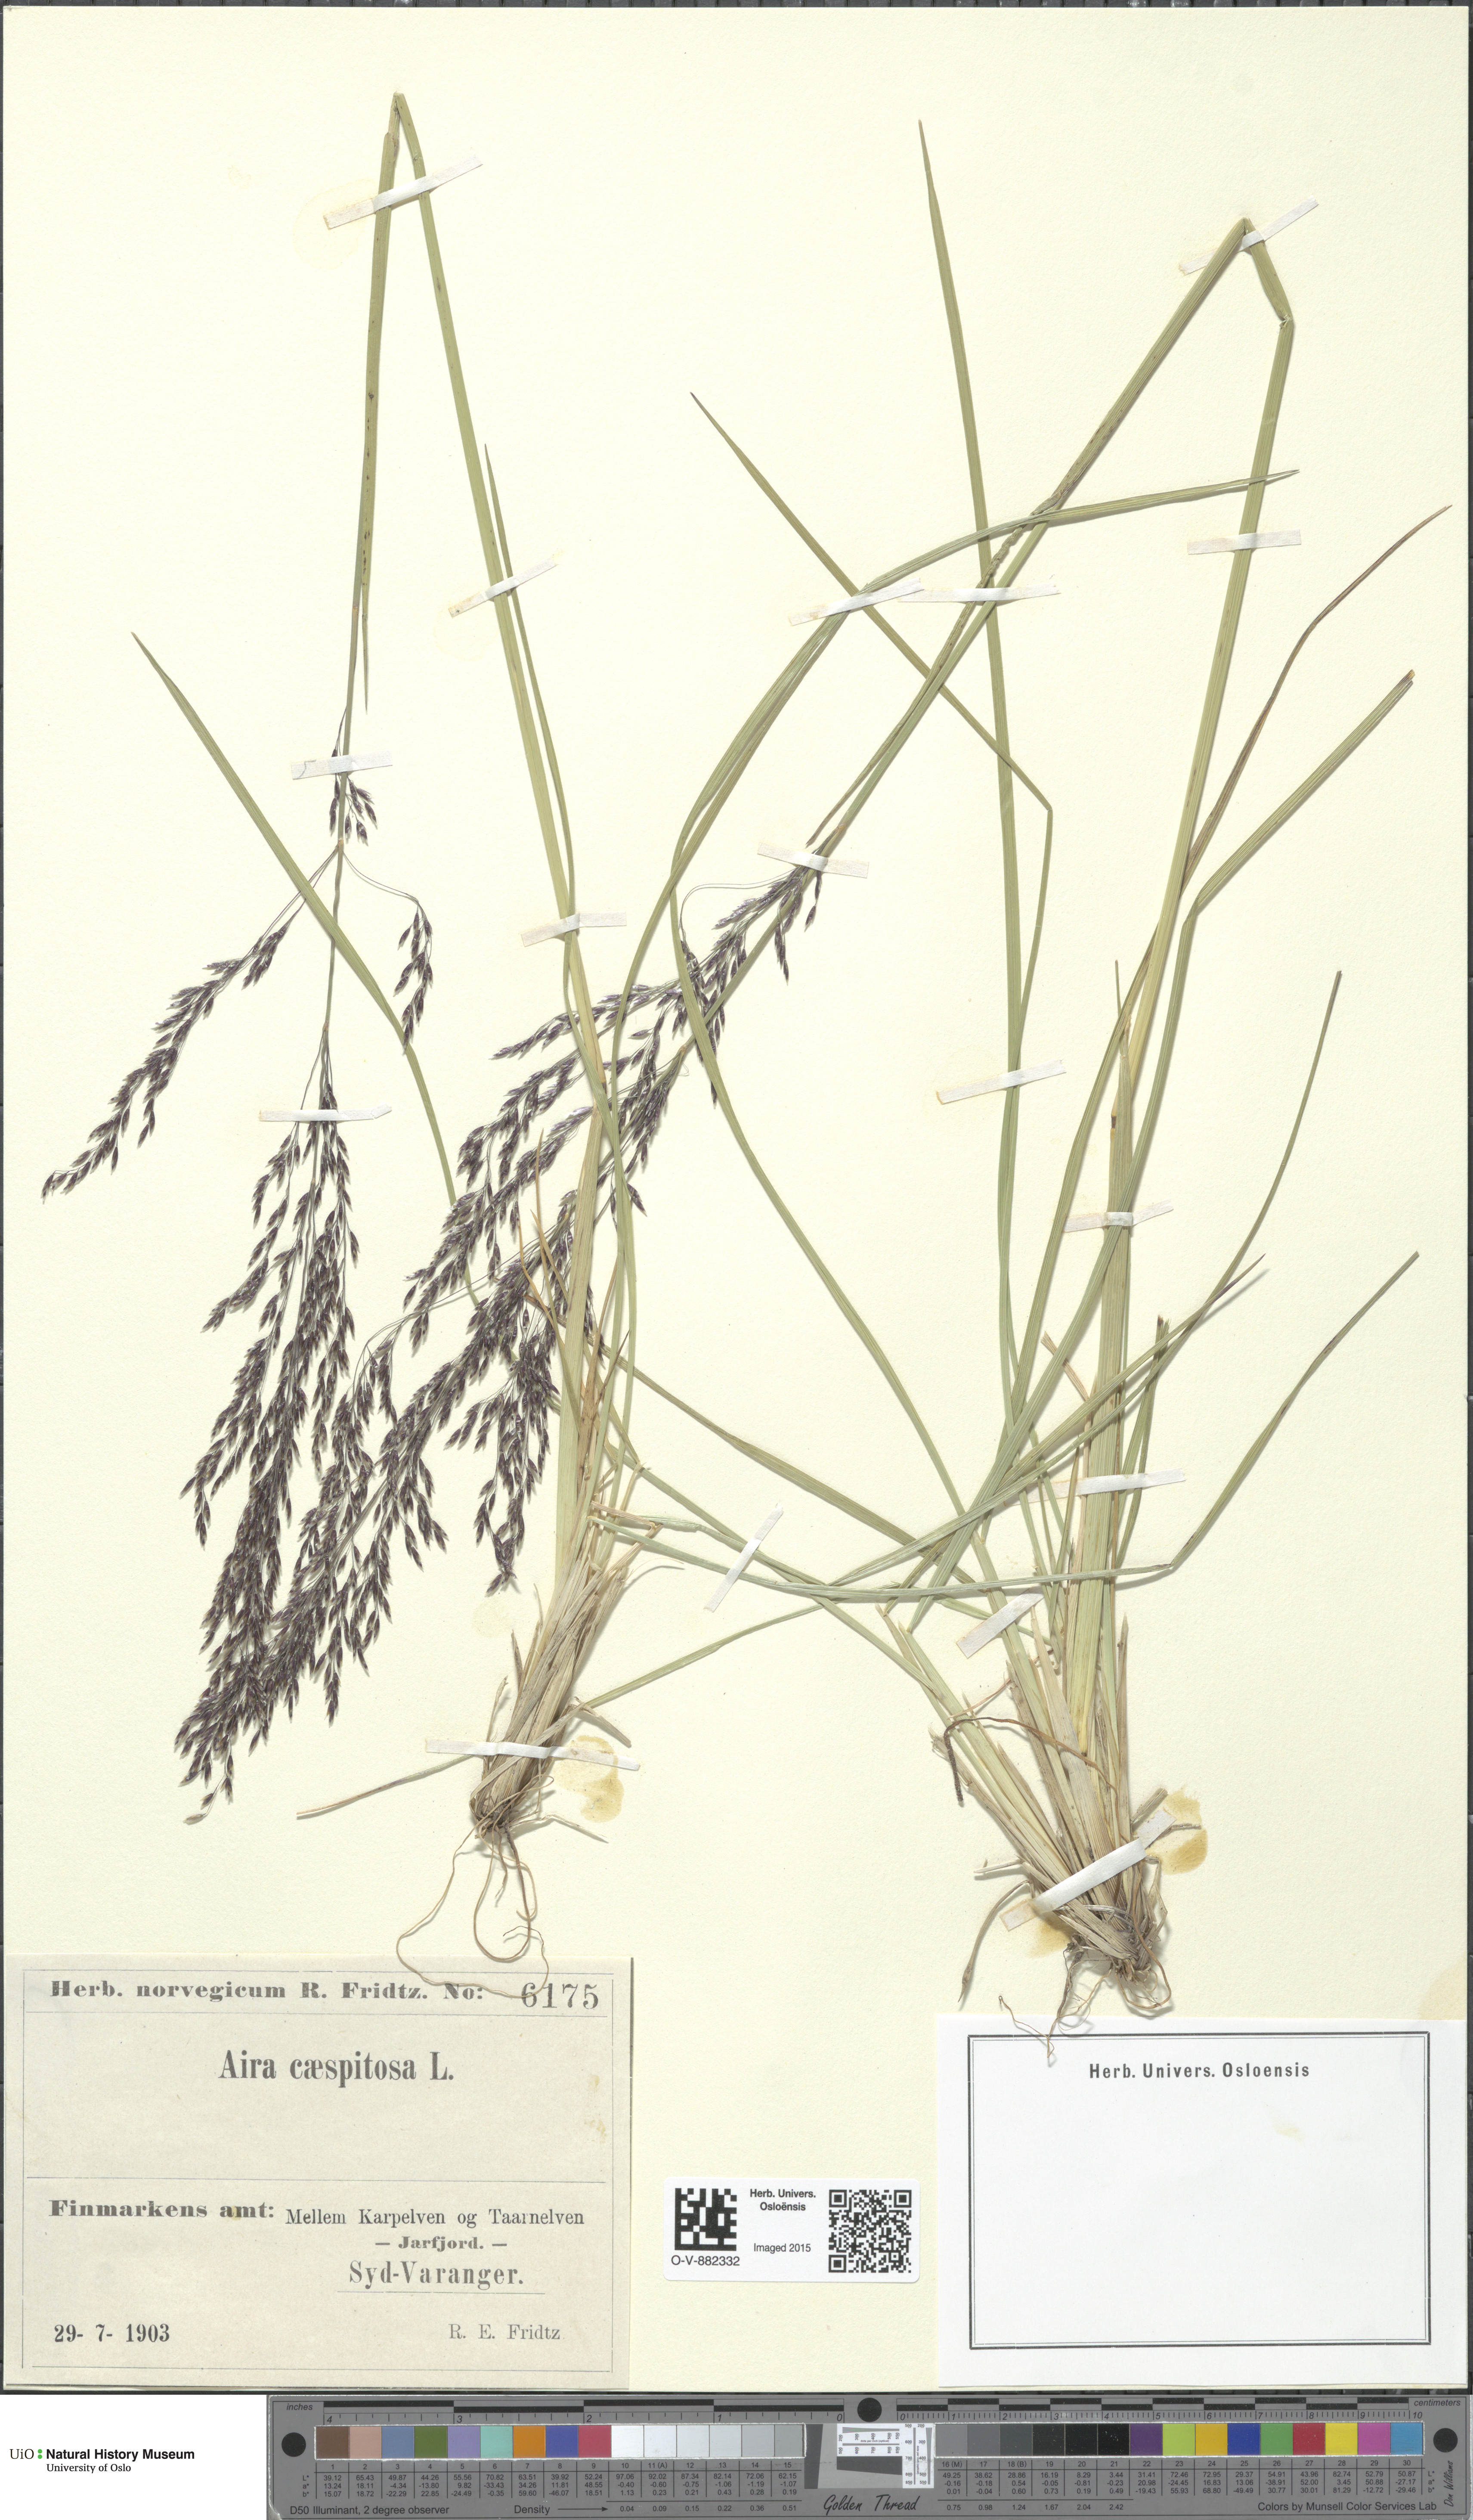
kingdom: Plantae
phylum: Tracheophyta
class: Liliopsida
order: Poales
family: Poaceae
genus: Deschampsia
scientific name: Deschampsia cespitosa
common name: Tufted hair-grass
